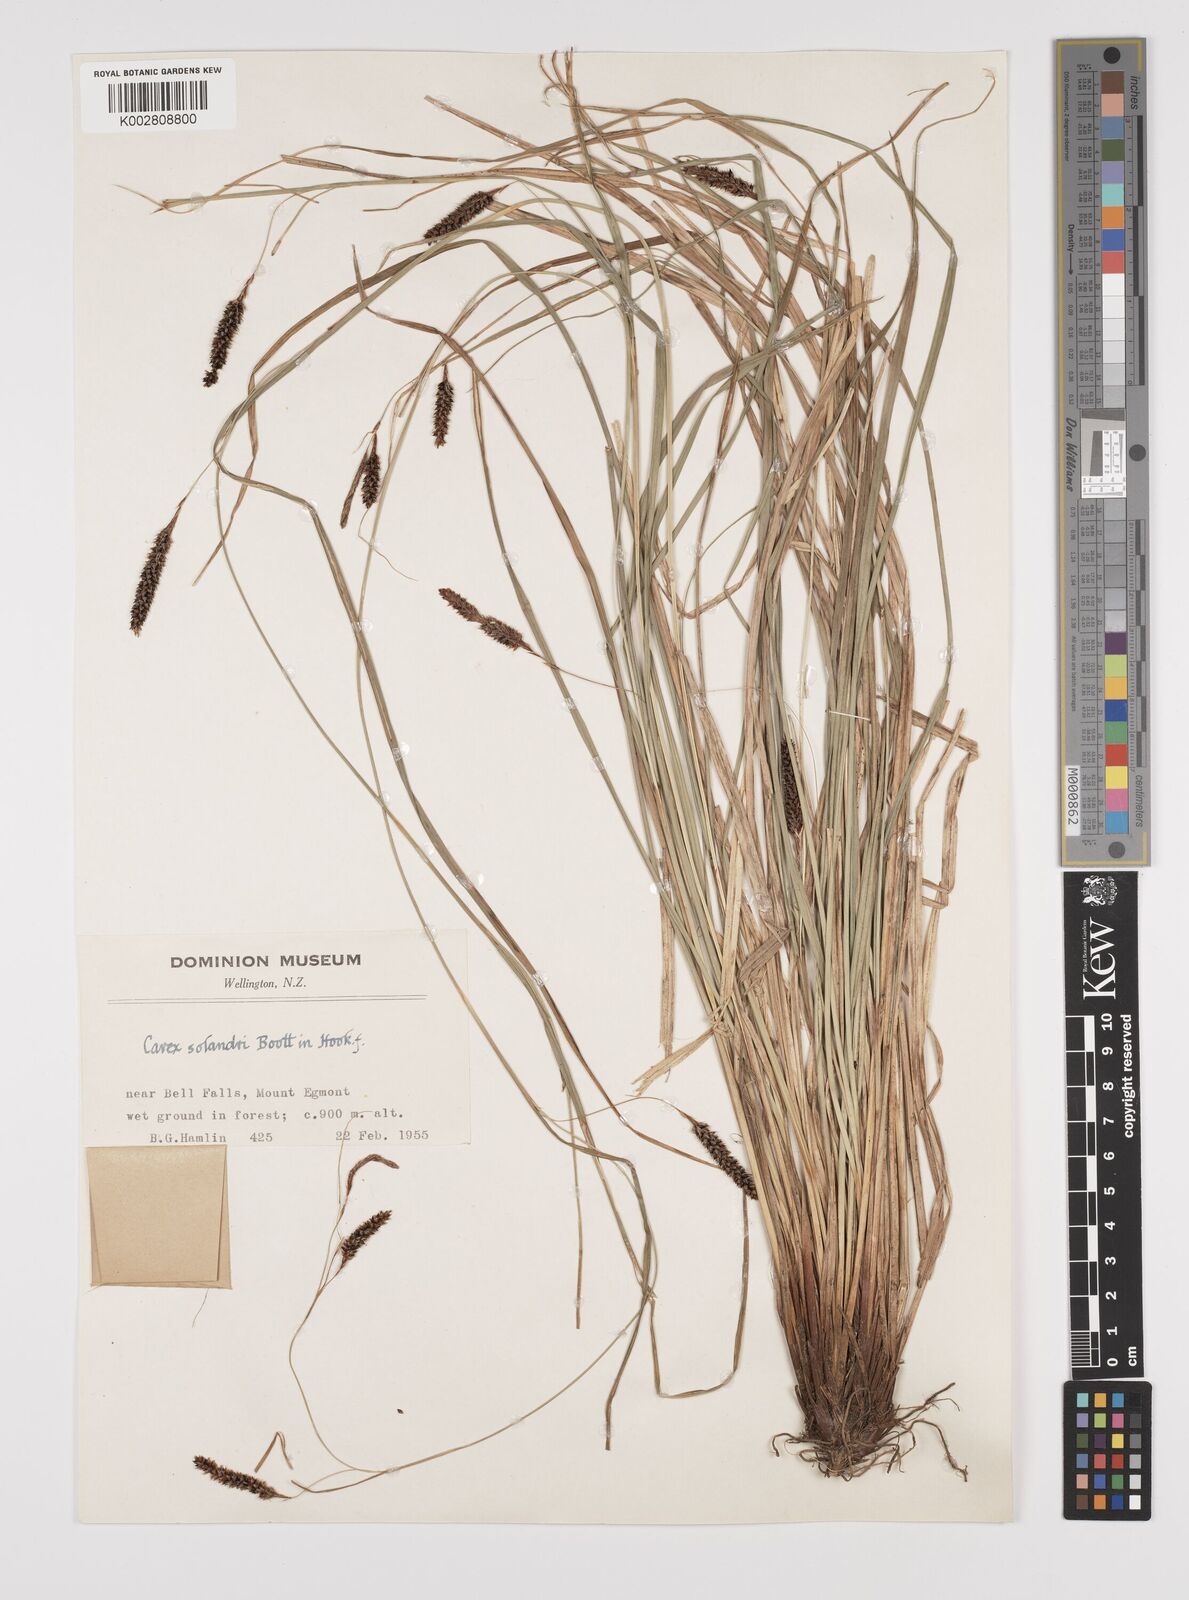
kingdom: Plantae
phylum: Tracheophyta
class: Liliopsida
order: Poales
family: Cyperaceae
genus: Carex
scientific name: Carex dissita
